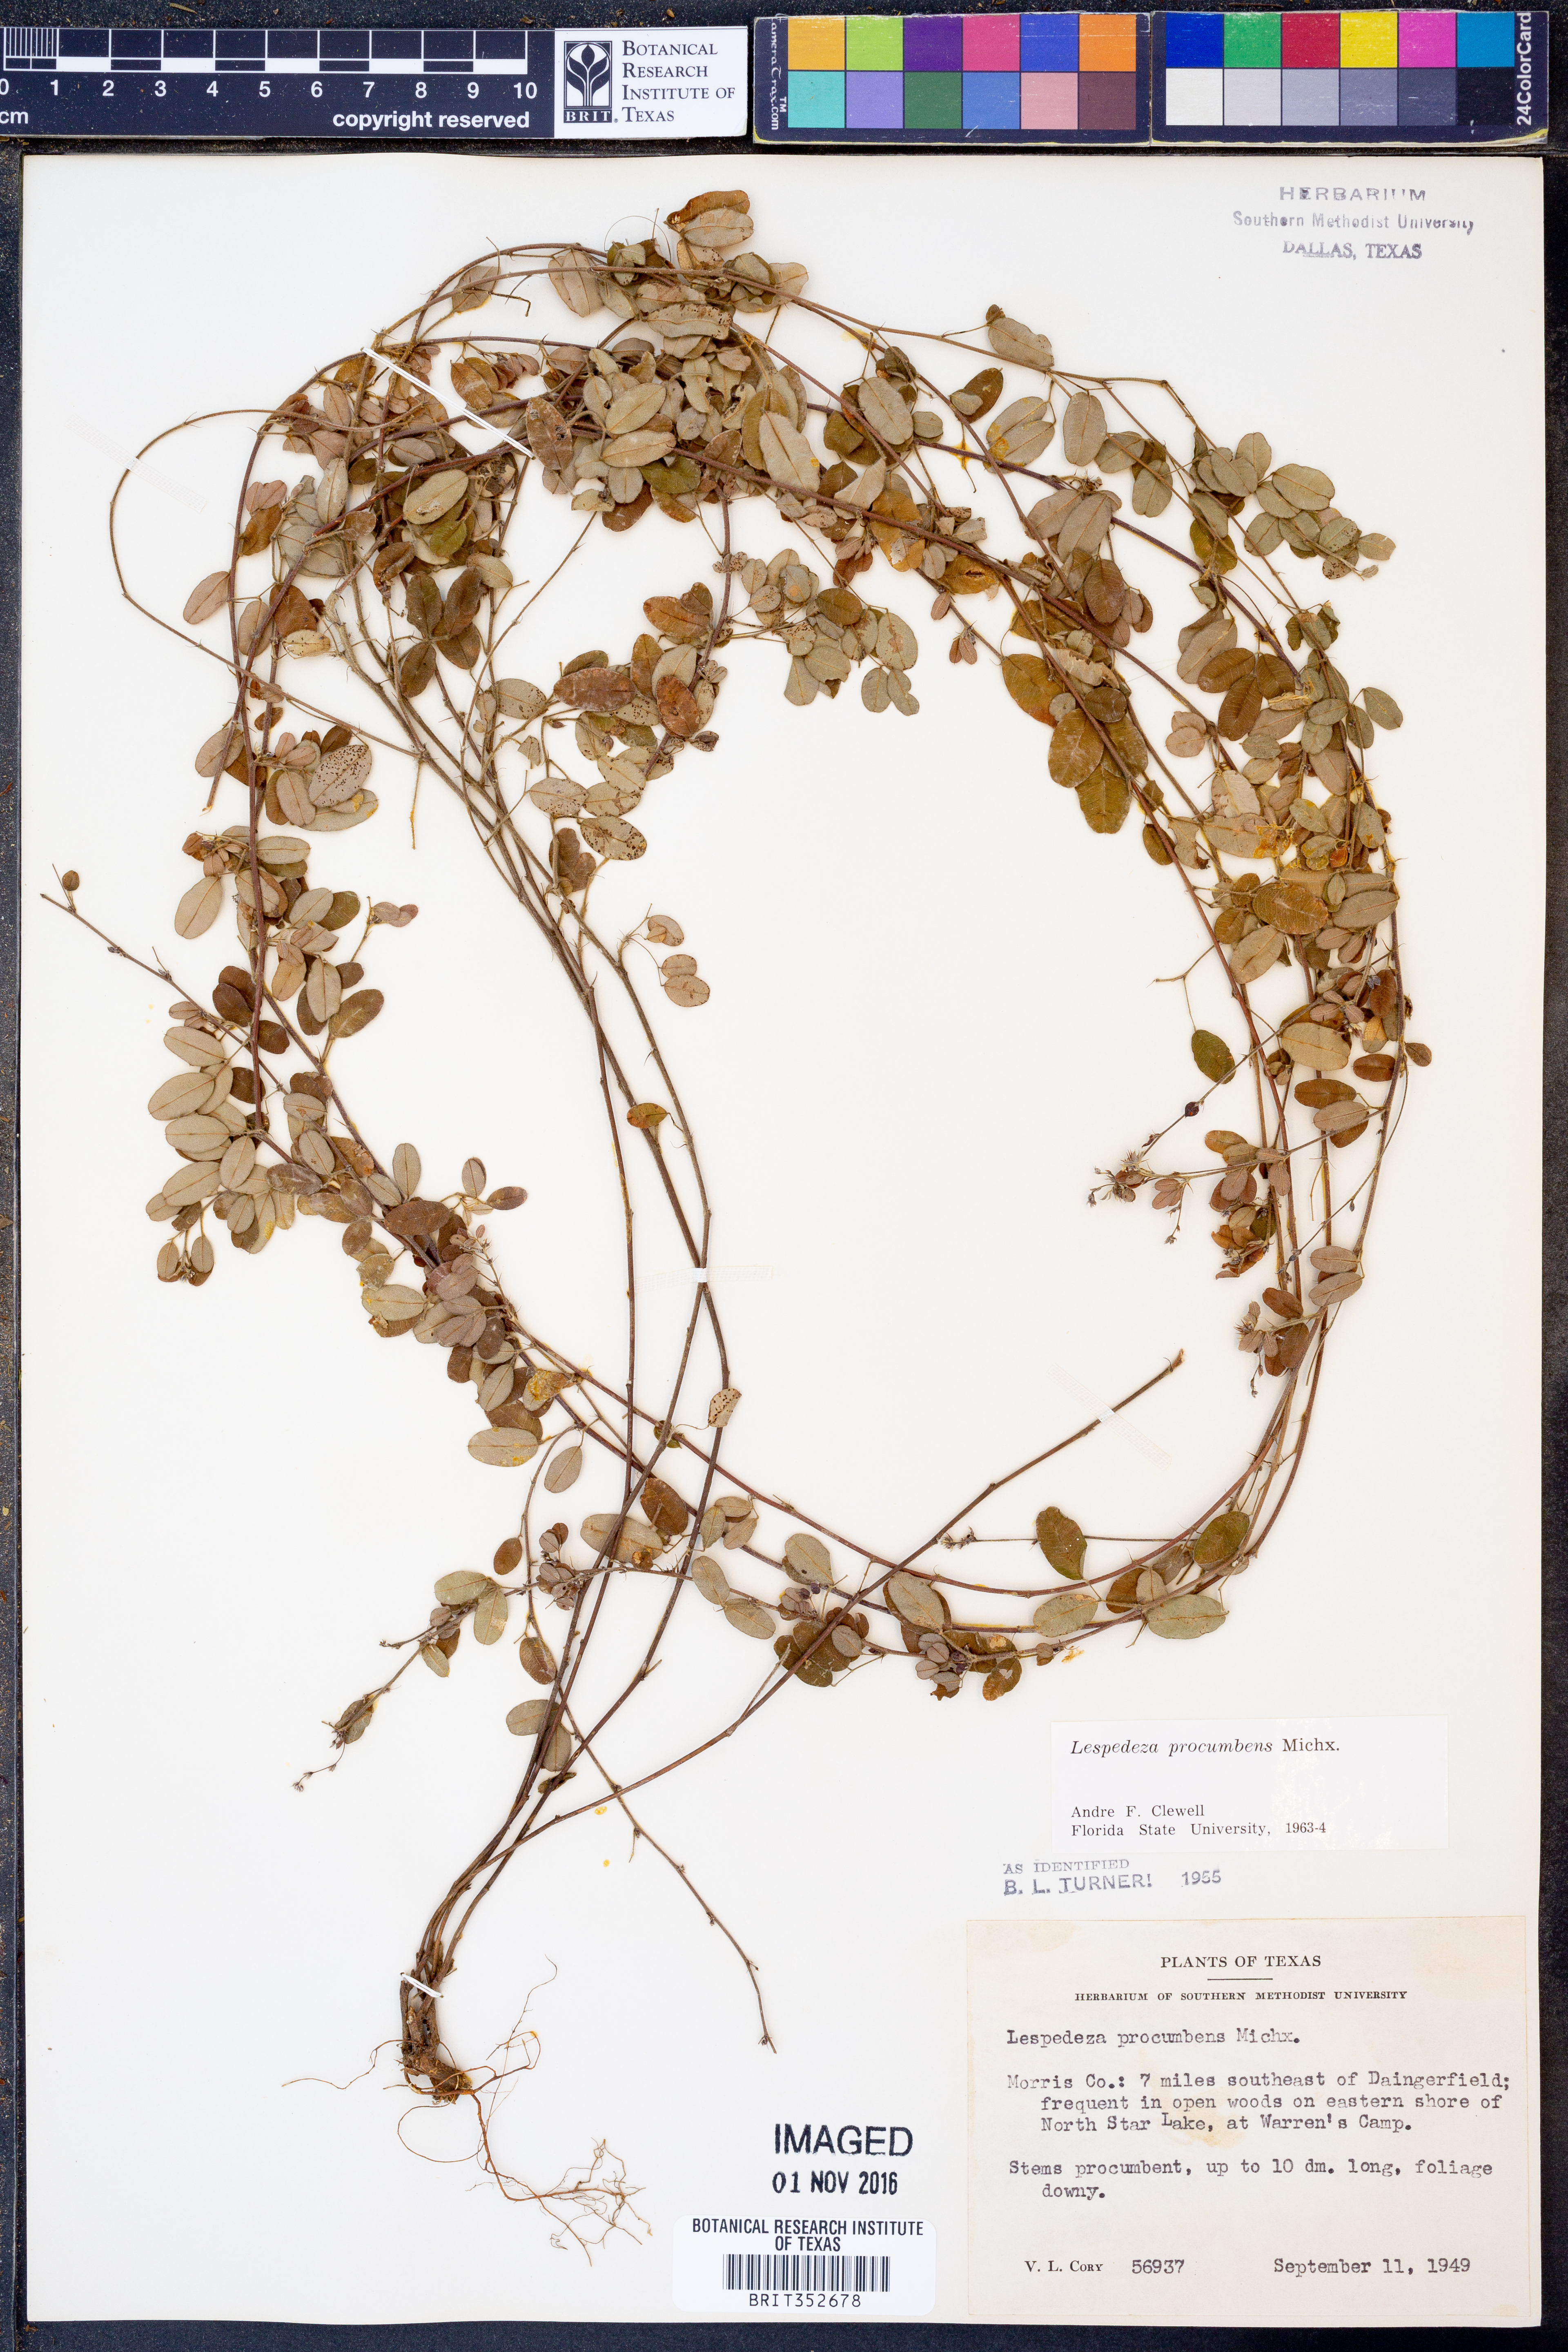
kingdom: Plantae
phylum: Tracheophyta
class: Magnoliopsida
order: Fabales
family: Fabaceae
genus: Lespedeza
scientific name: Lespedeza procumbens
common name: Downy trailing bush-clover
